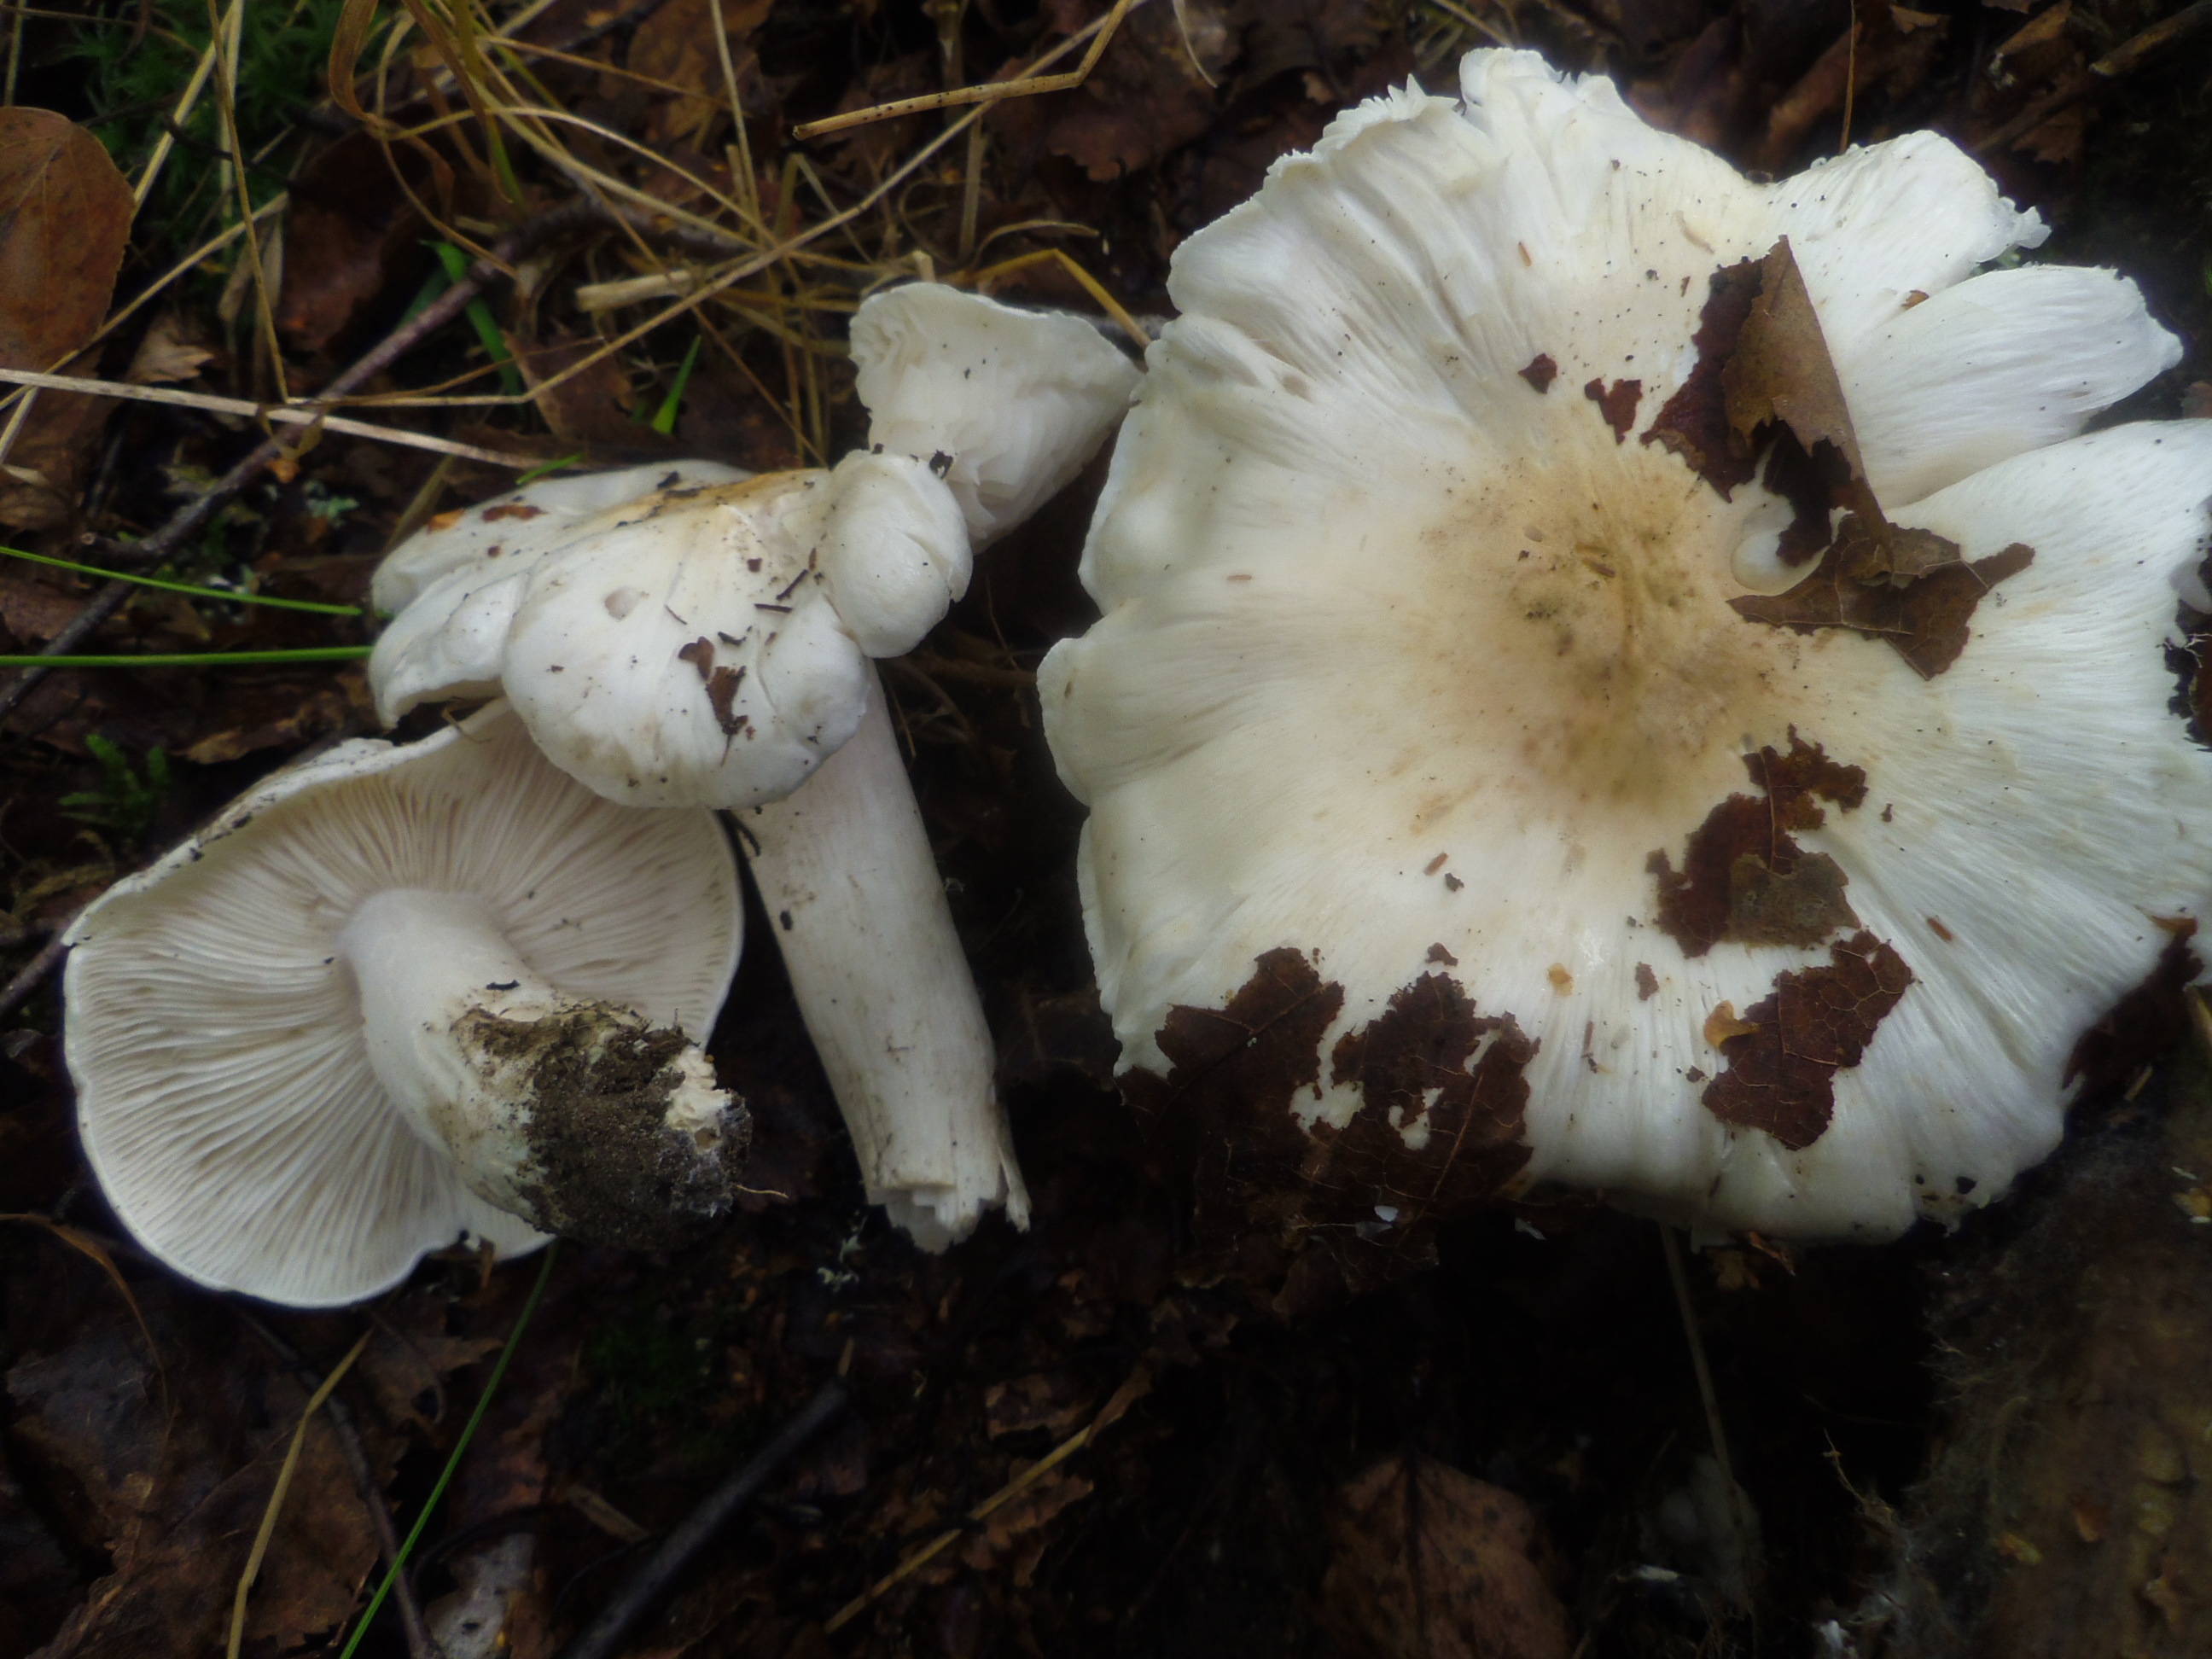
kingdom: Fungi
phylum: Basidiomycota
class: Agaricomycetes
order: Agaricales
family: Tricholomataceae
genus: Tricholoma
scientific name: Tricholoma columbetta
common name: Blue spot knight
